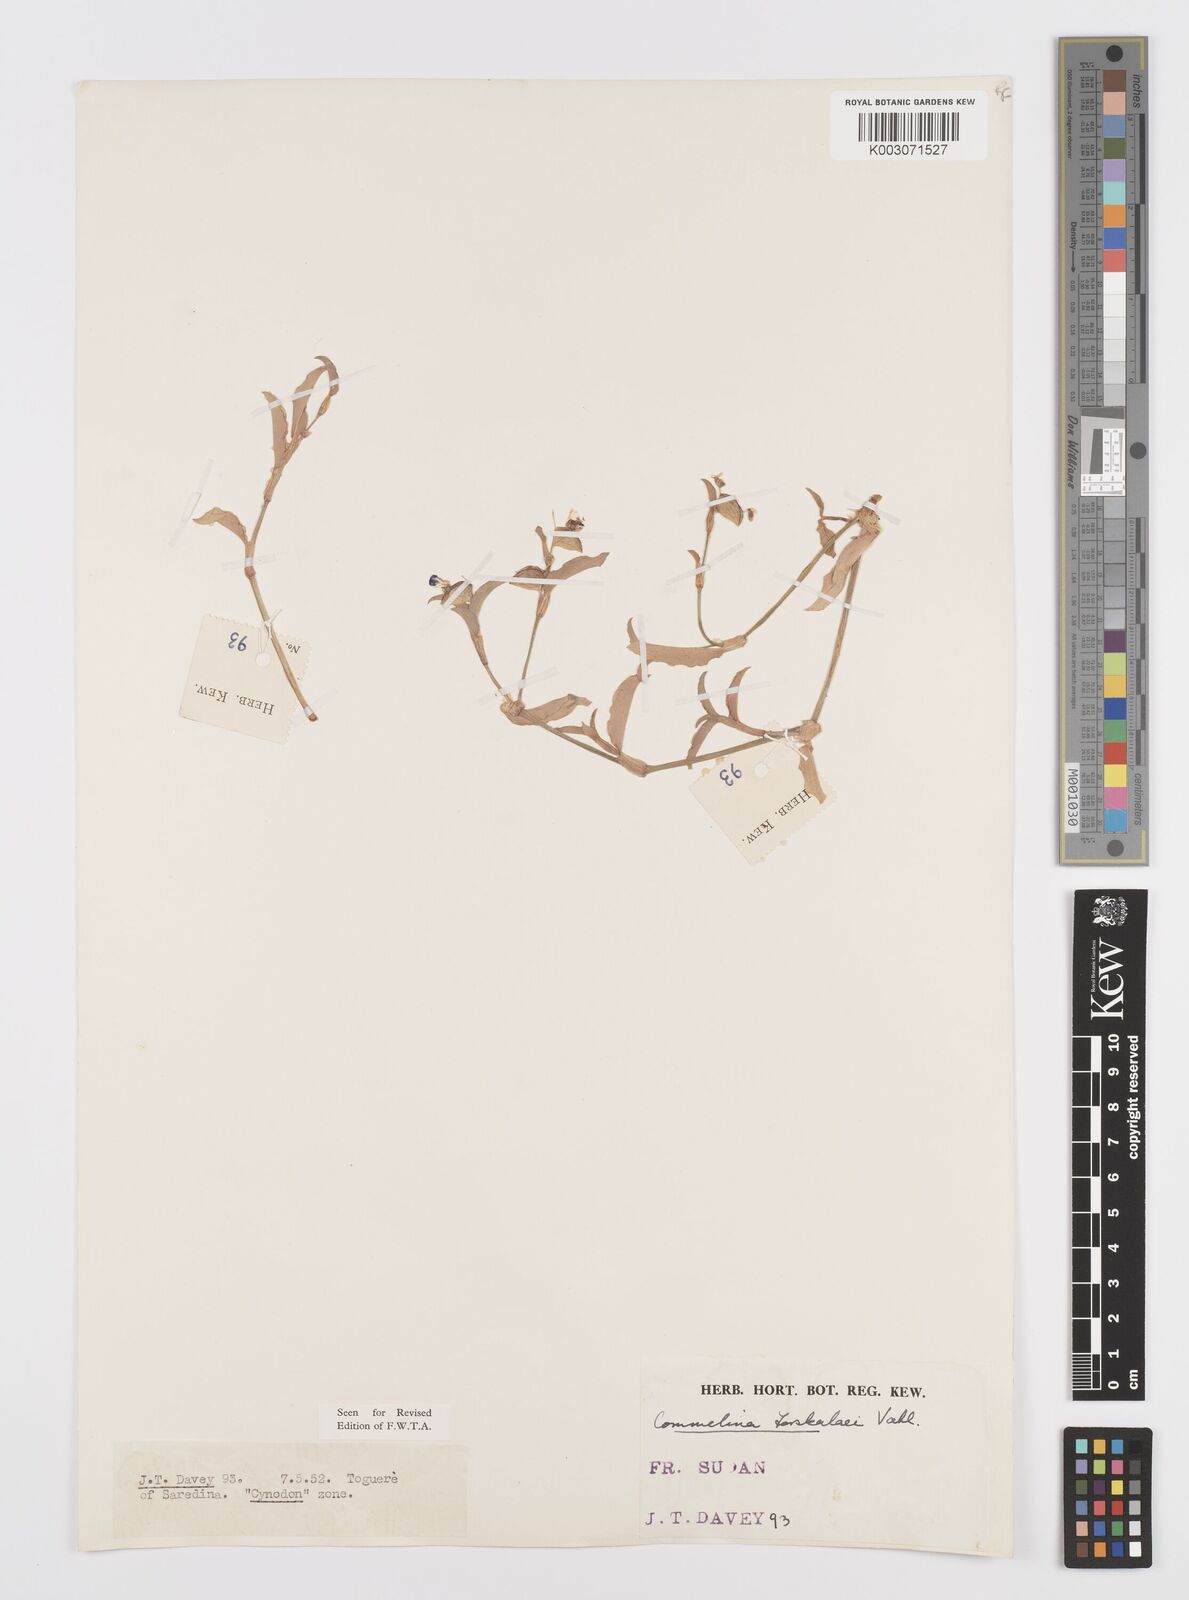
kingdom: Plantae
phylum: Tracheophyta
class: Liliopsida
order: Commelinales
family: Commelinaceae
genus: Commelina
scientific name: Commelina forskaolii
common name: Rat's ear
